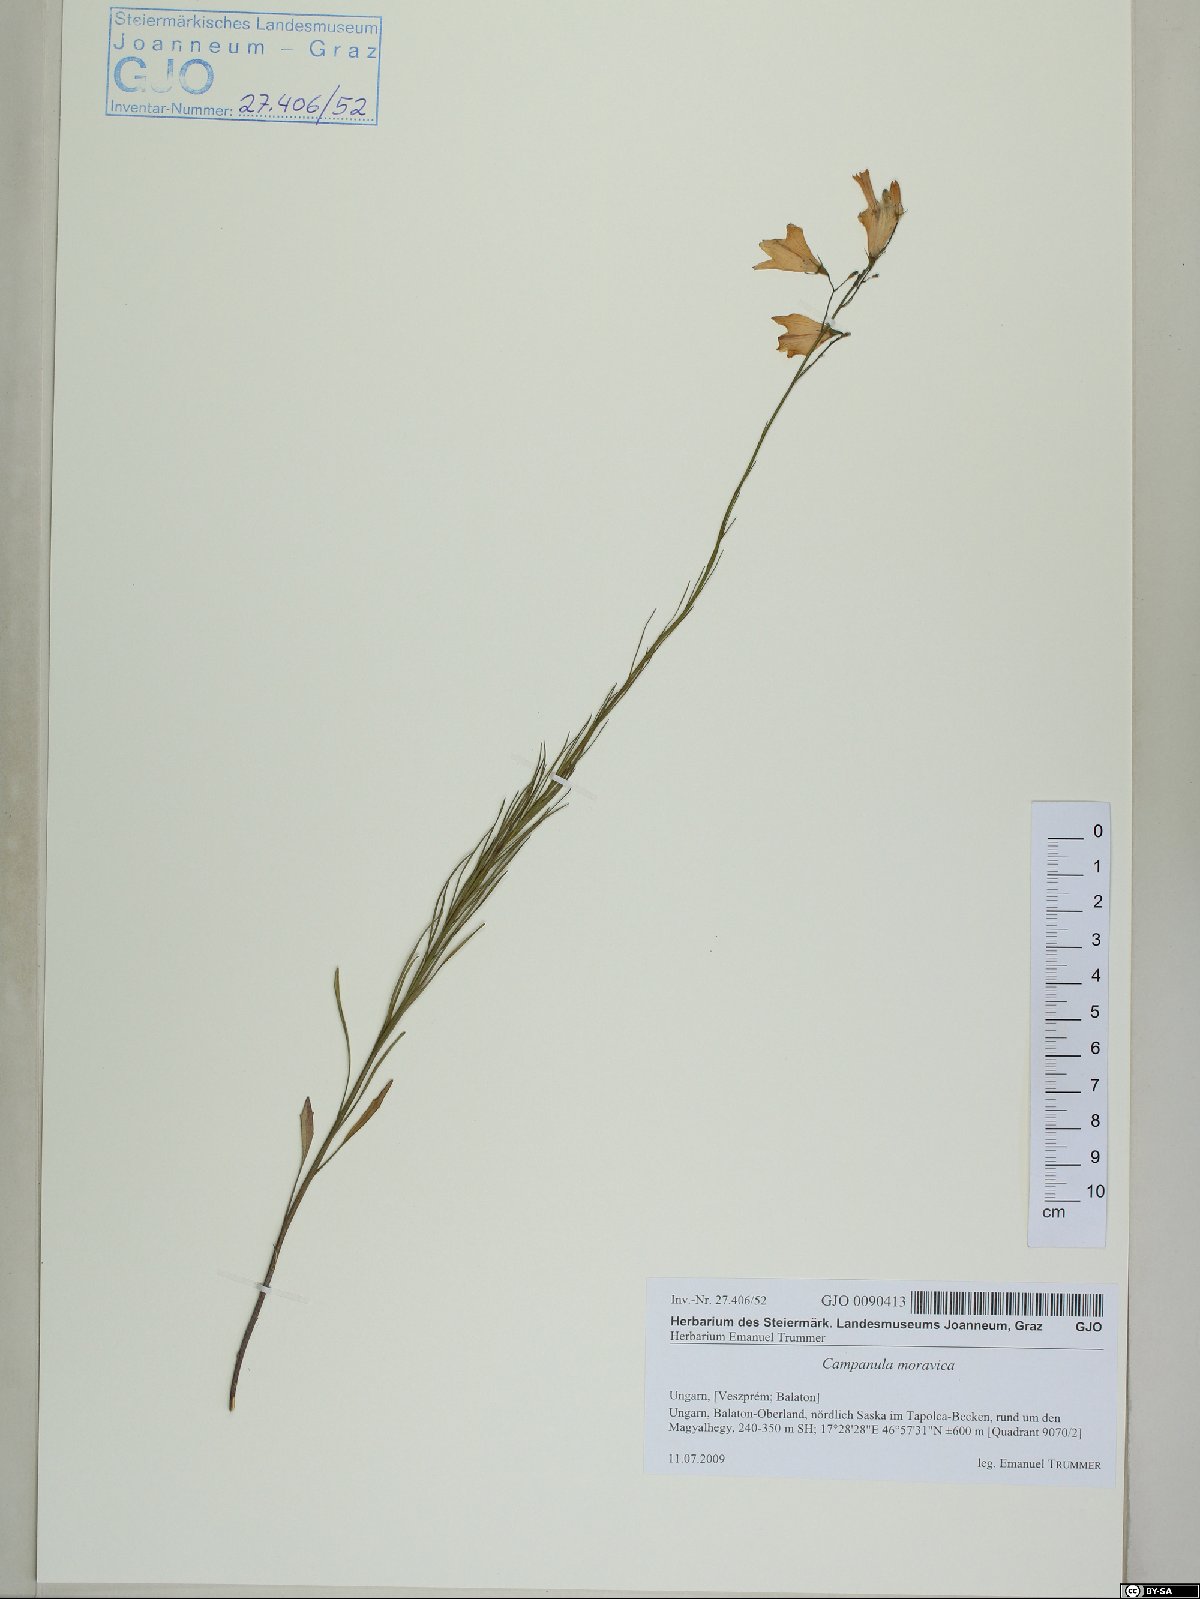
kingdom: Plantae
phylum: Tracheophyta
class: Magnoliopsida
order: Asterales
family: Campanulaceae
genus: Campanula
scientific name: Campanula moravica
